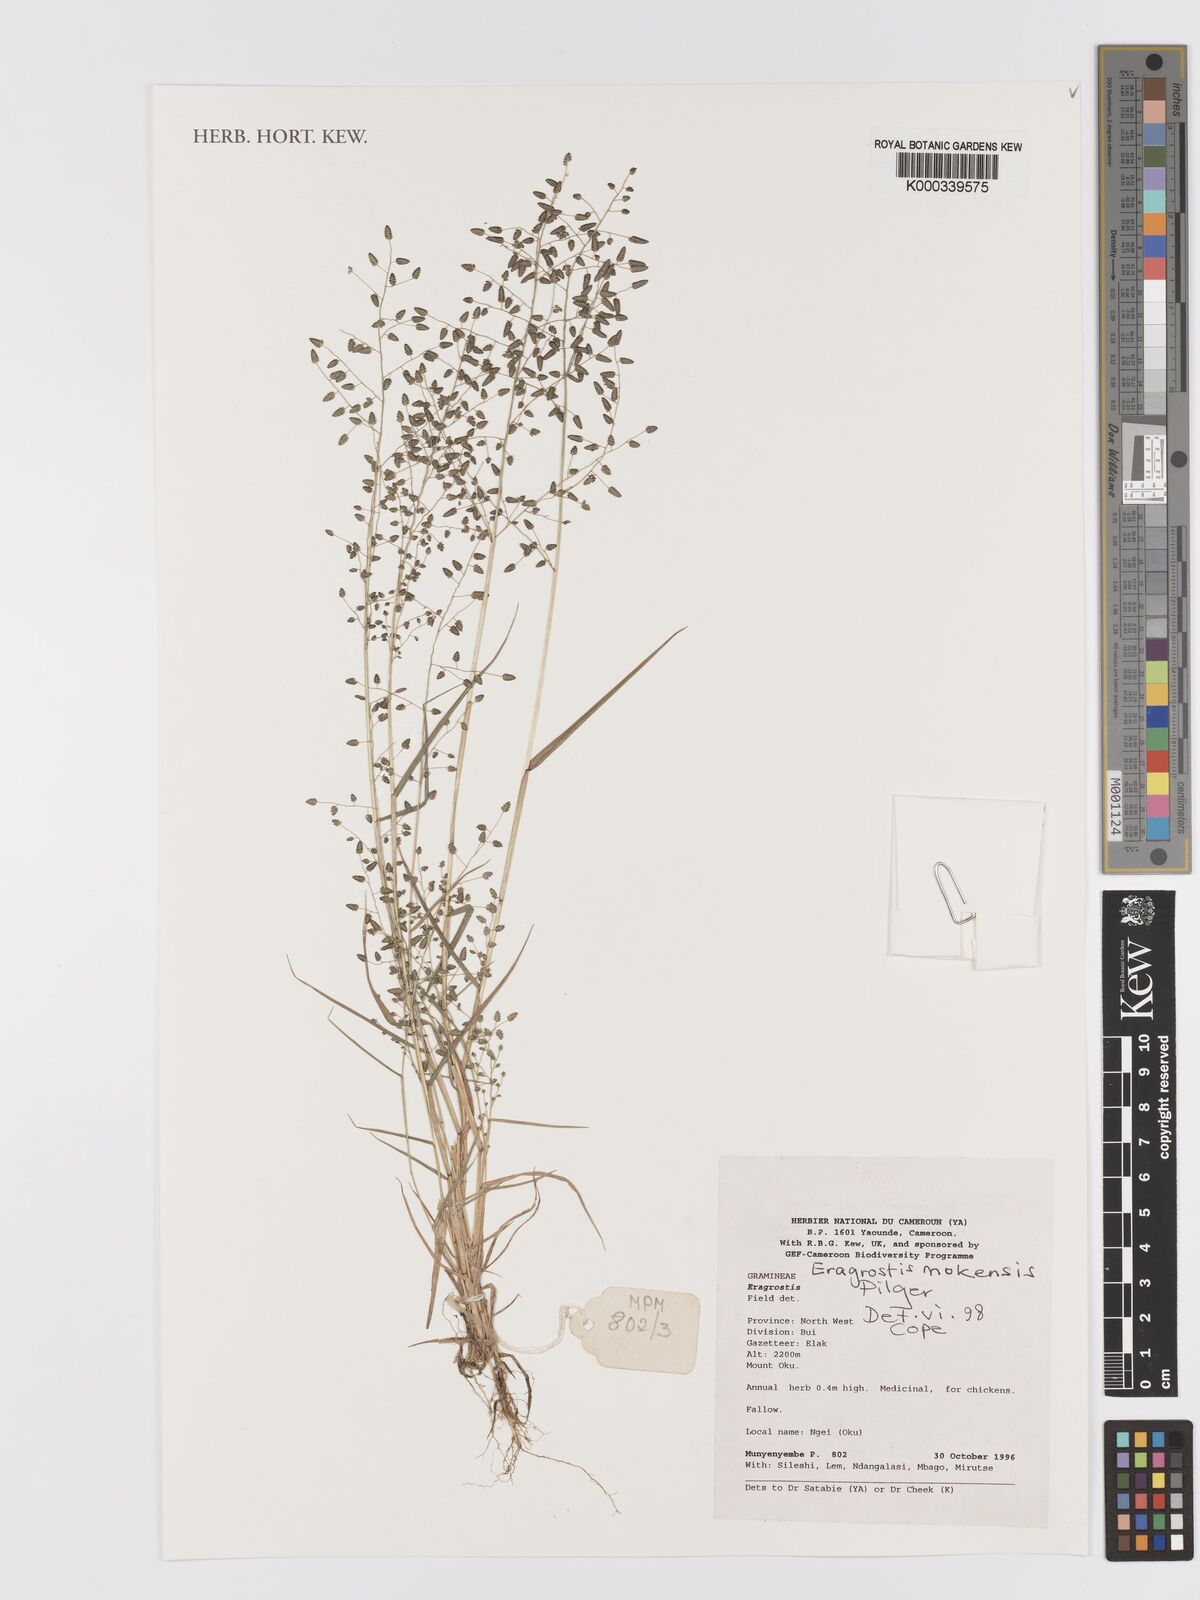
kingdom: Plantae
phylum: Tracheophyta
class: Liliopsida
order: Poales
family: Poaceae
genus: Eragrostis
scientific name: Eragrostis mokensis
